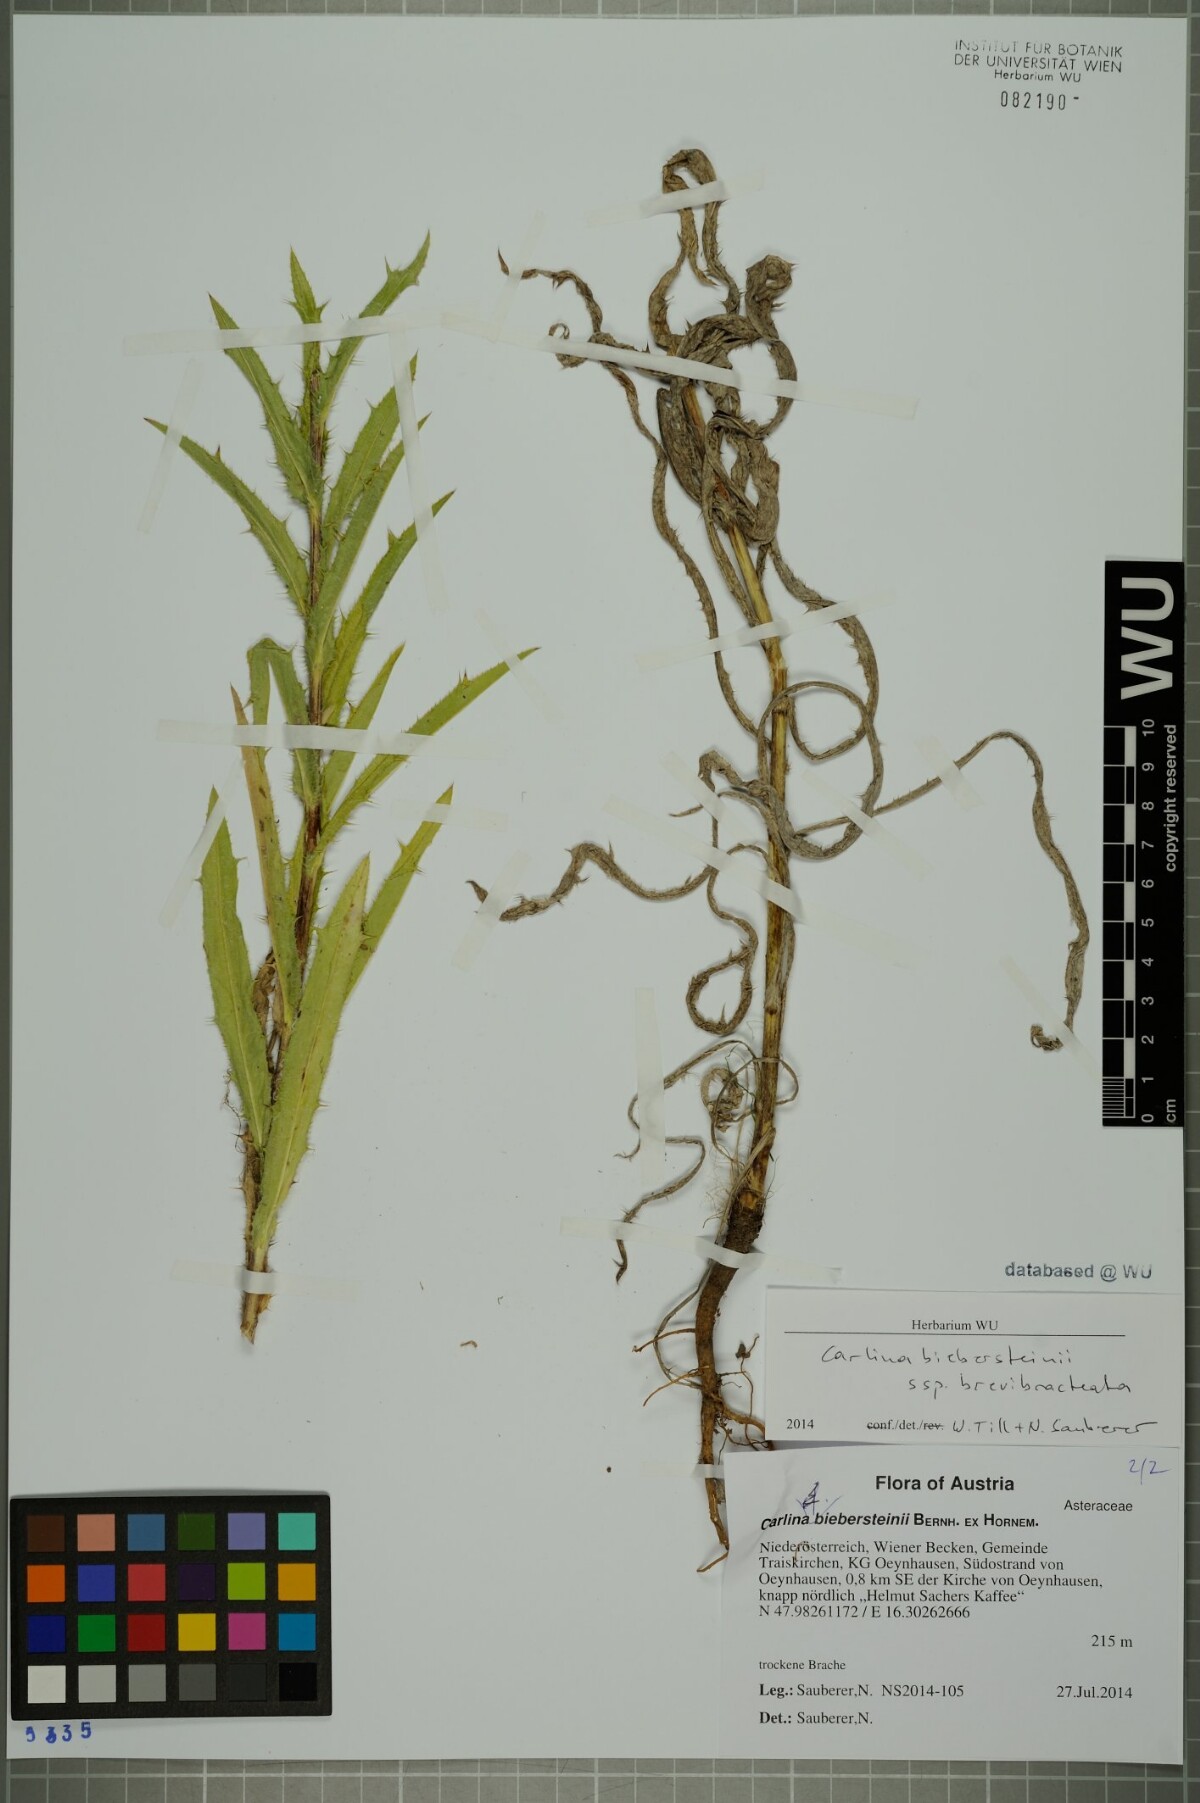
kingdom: Plantae
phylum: Tracheophyta
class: Magnoliopsida
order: Asterales
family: Asteraceae
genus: Carlina
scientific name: Carlina biebersteinii
